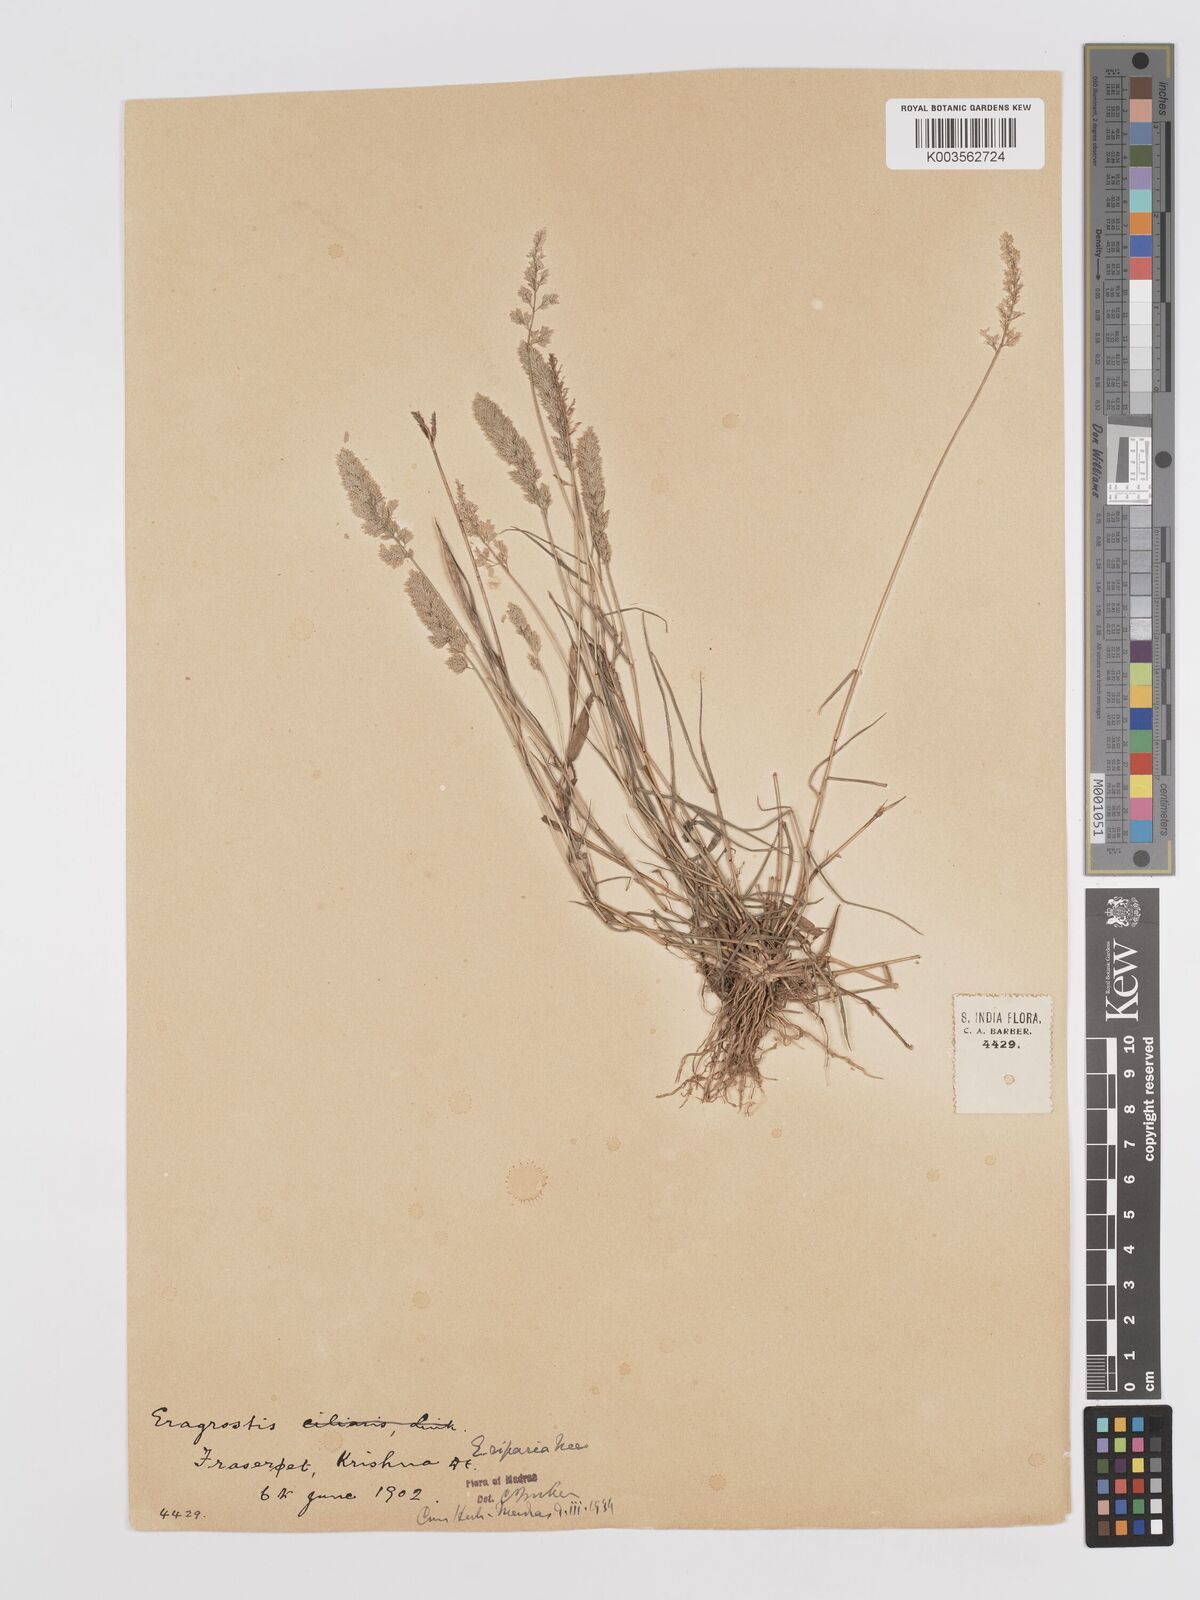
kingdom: Plantae
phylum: Tracheophyta
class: Liliopsida
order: Poales
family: Poaceae
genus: Eragrostis
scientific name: Eragrostis riparia
